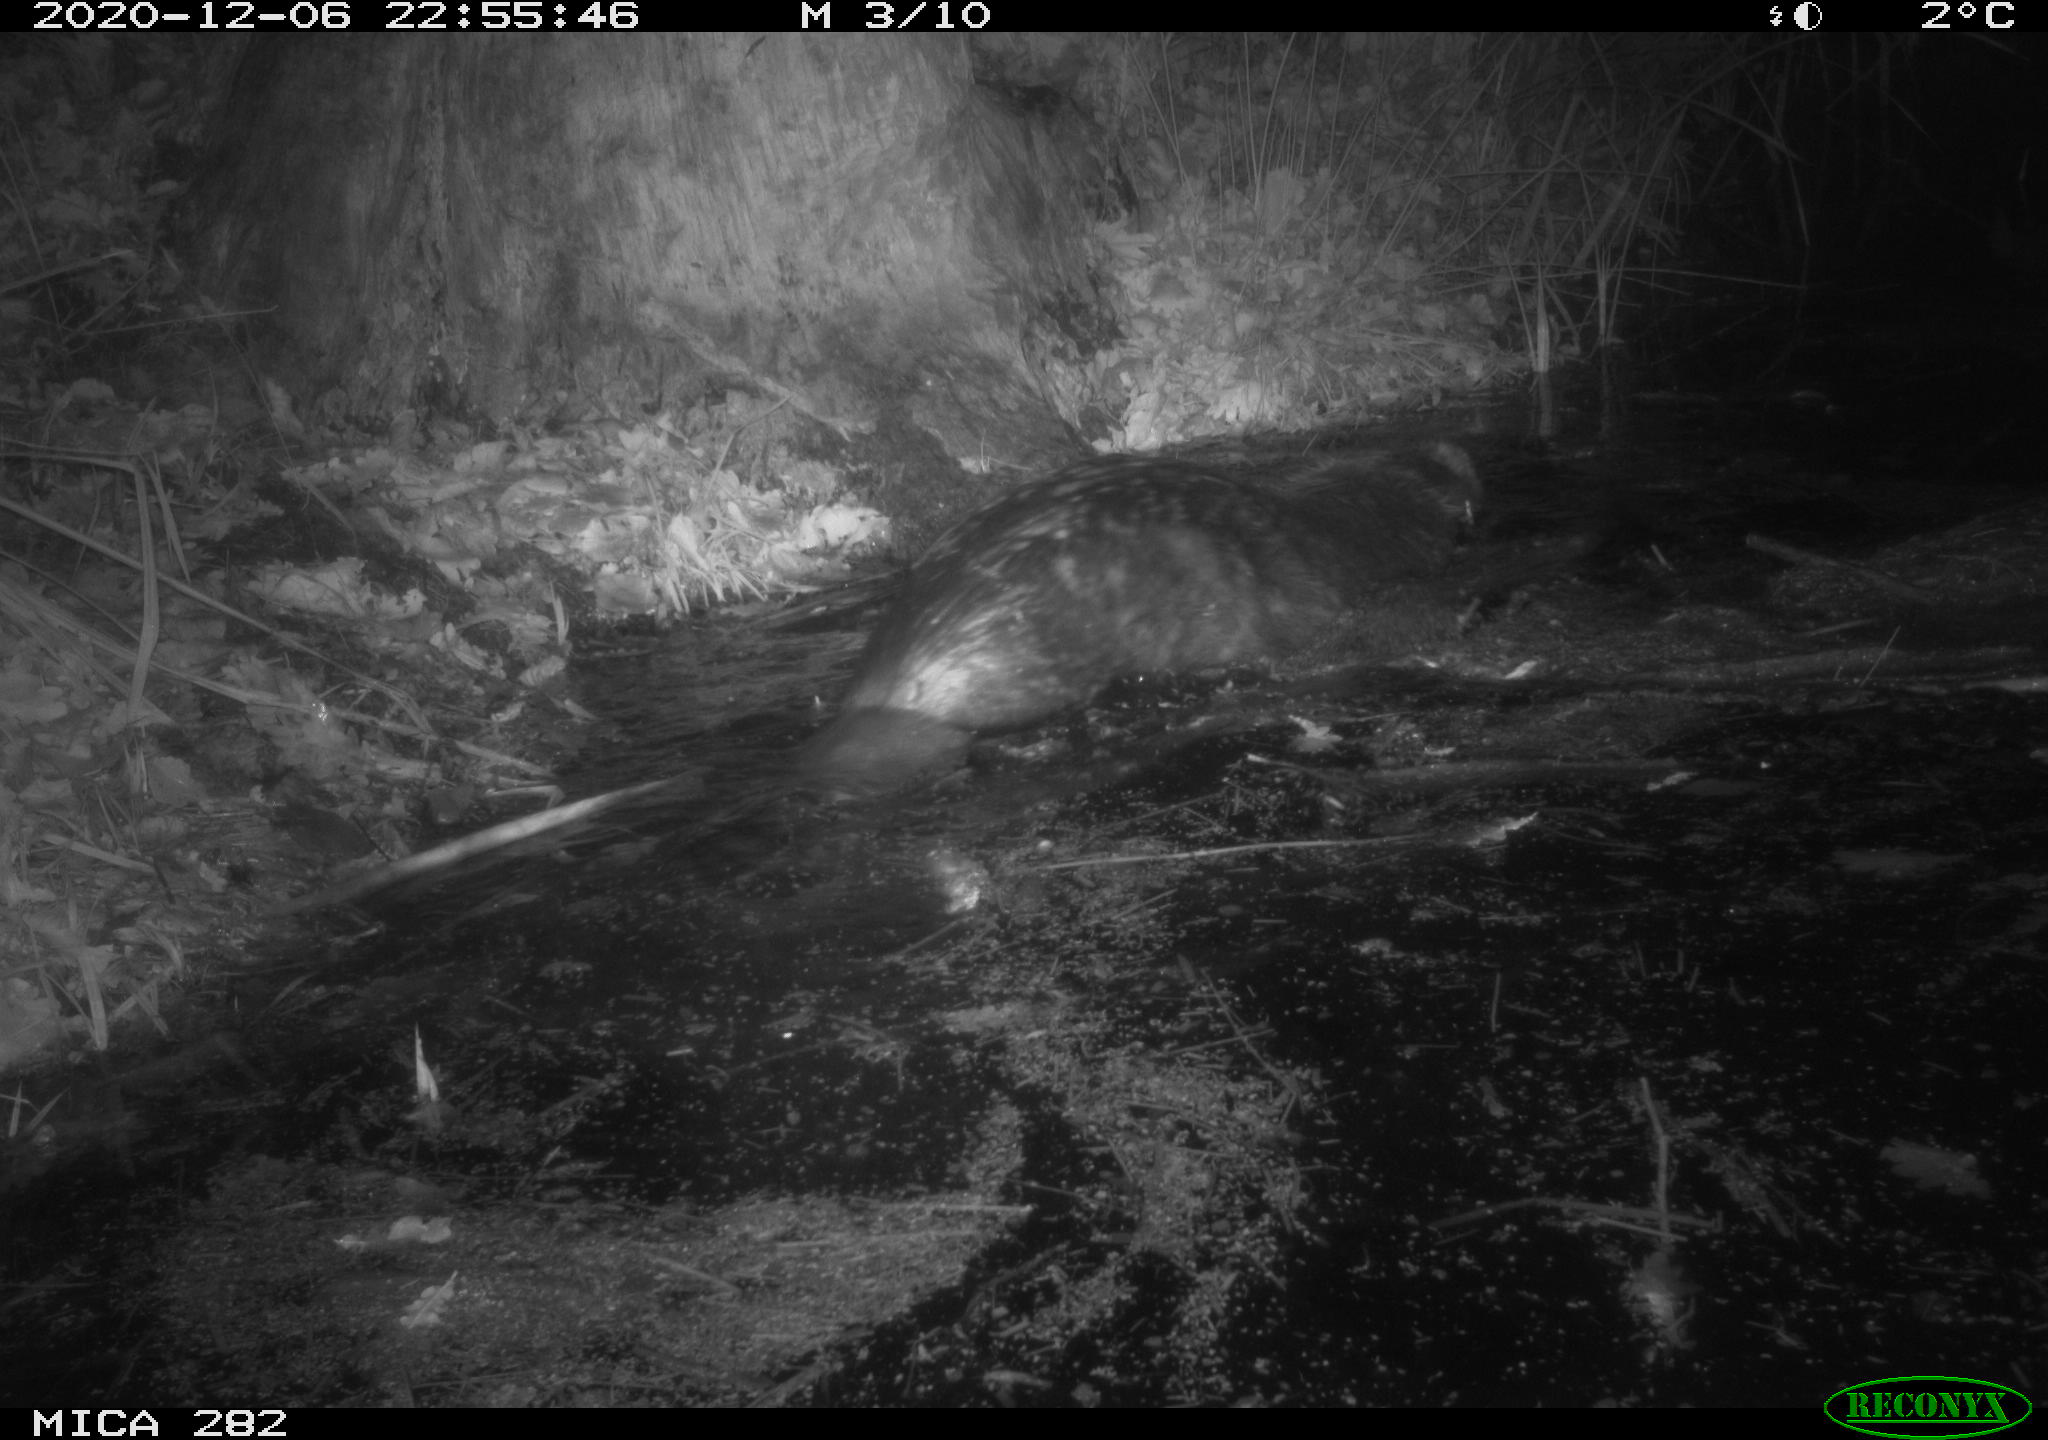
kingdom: Animalia
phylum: Chordata
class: Mammalia
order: Rodentia
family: Castoridae
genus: Castor
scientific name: Castor fiber
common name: Eurasian beaver
